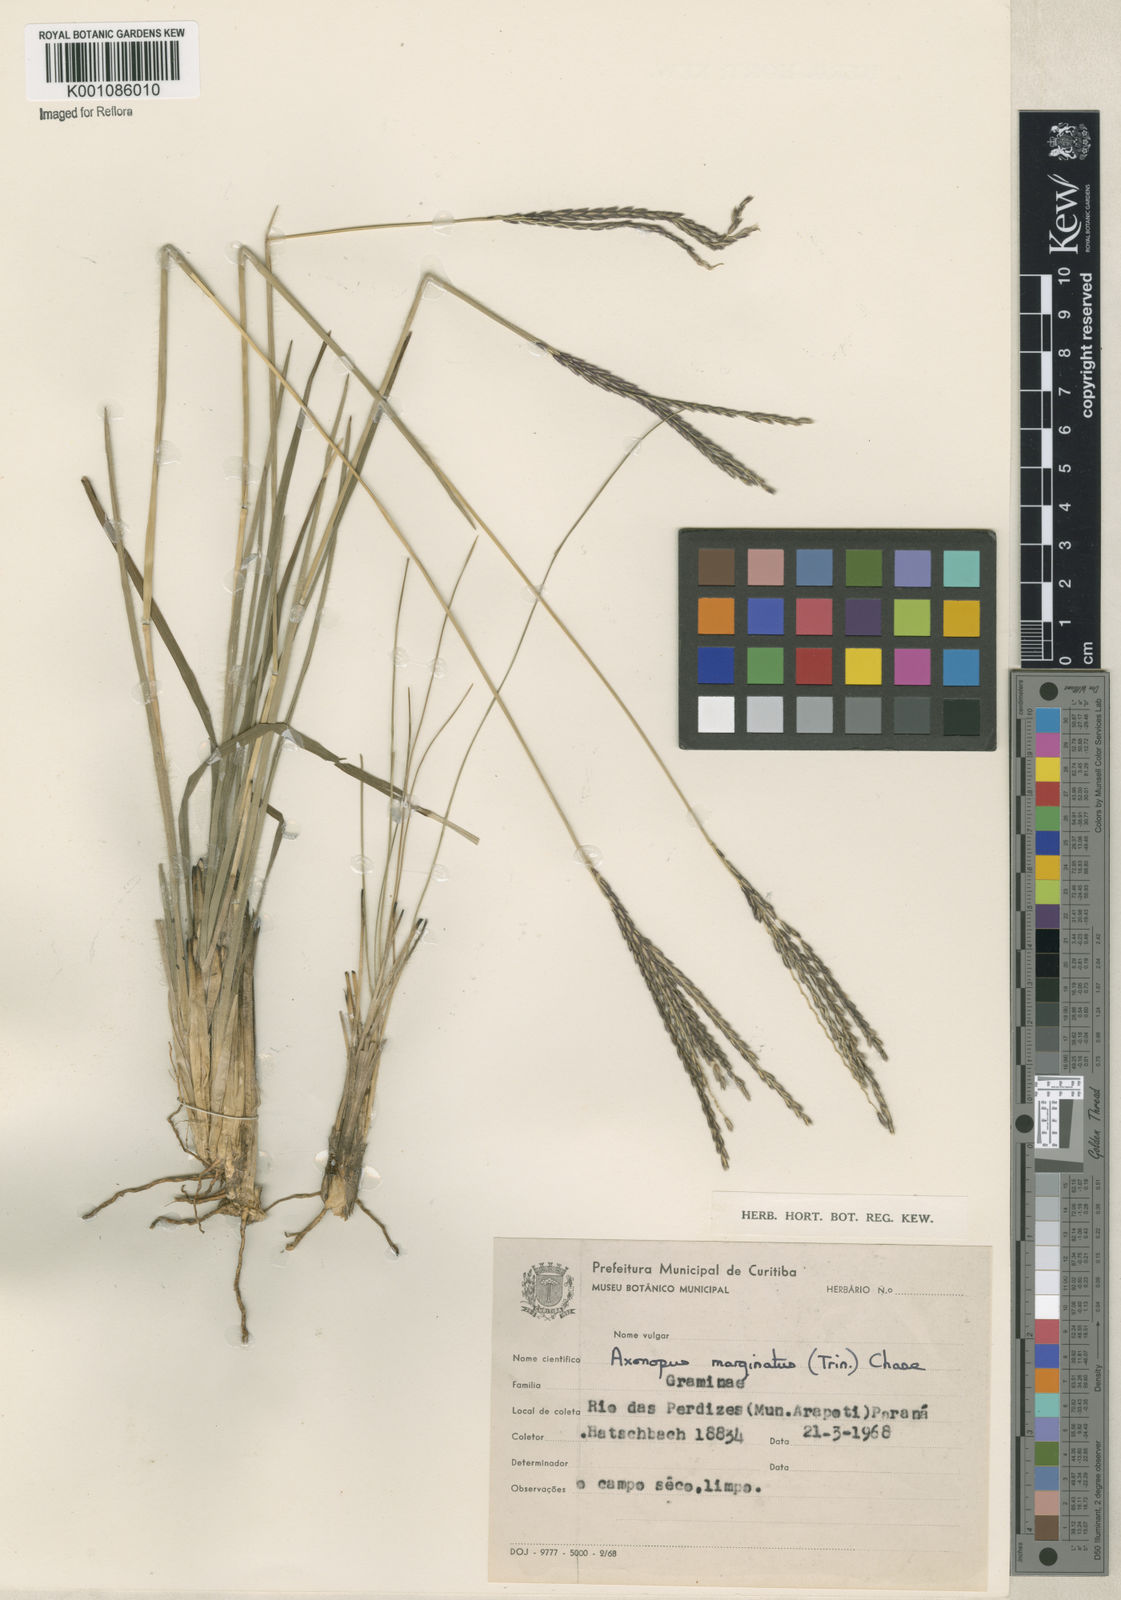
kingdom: Plantae
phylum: Tracheophyta
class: Liliopsida
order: Poales
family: Poaceae
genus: Axonopus
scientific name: Axonopus
